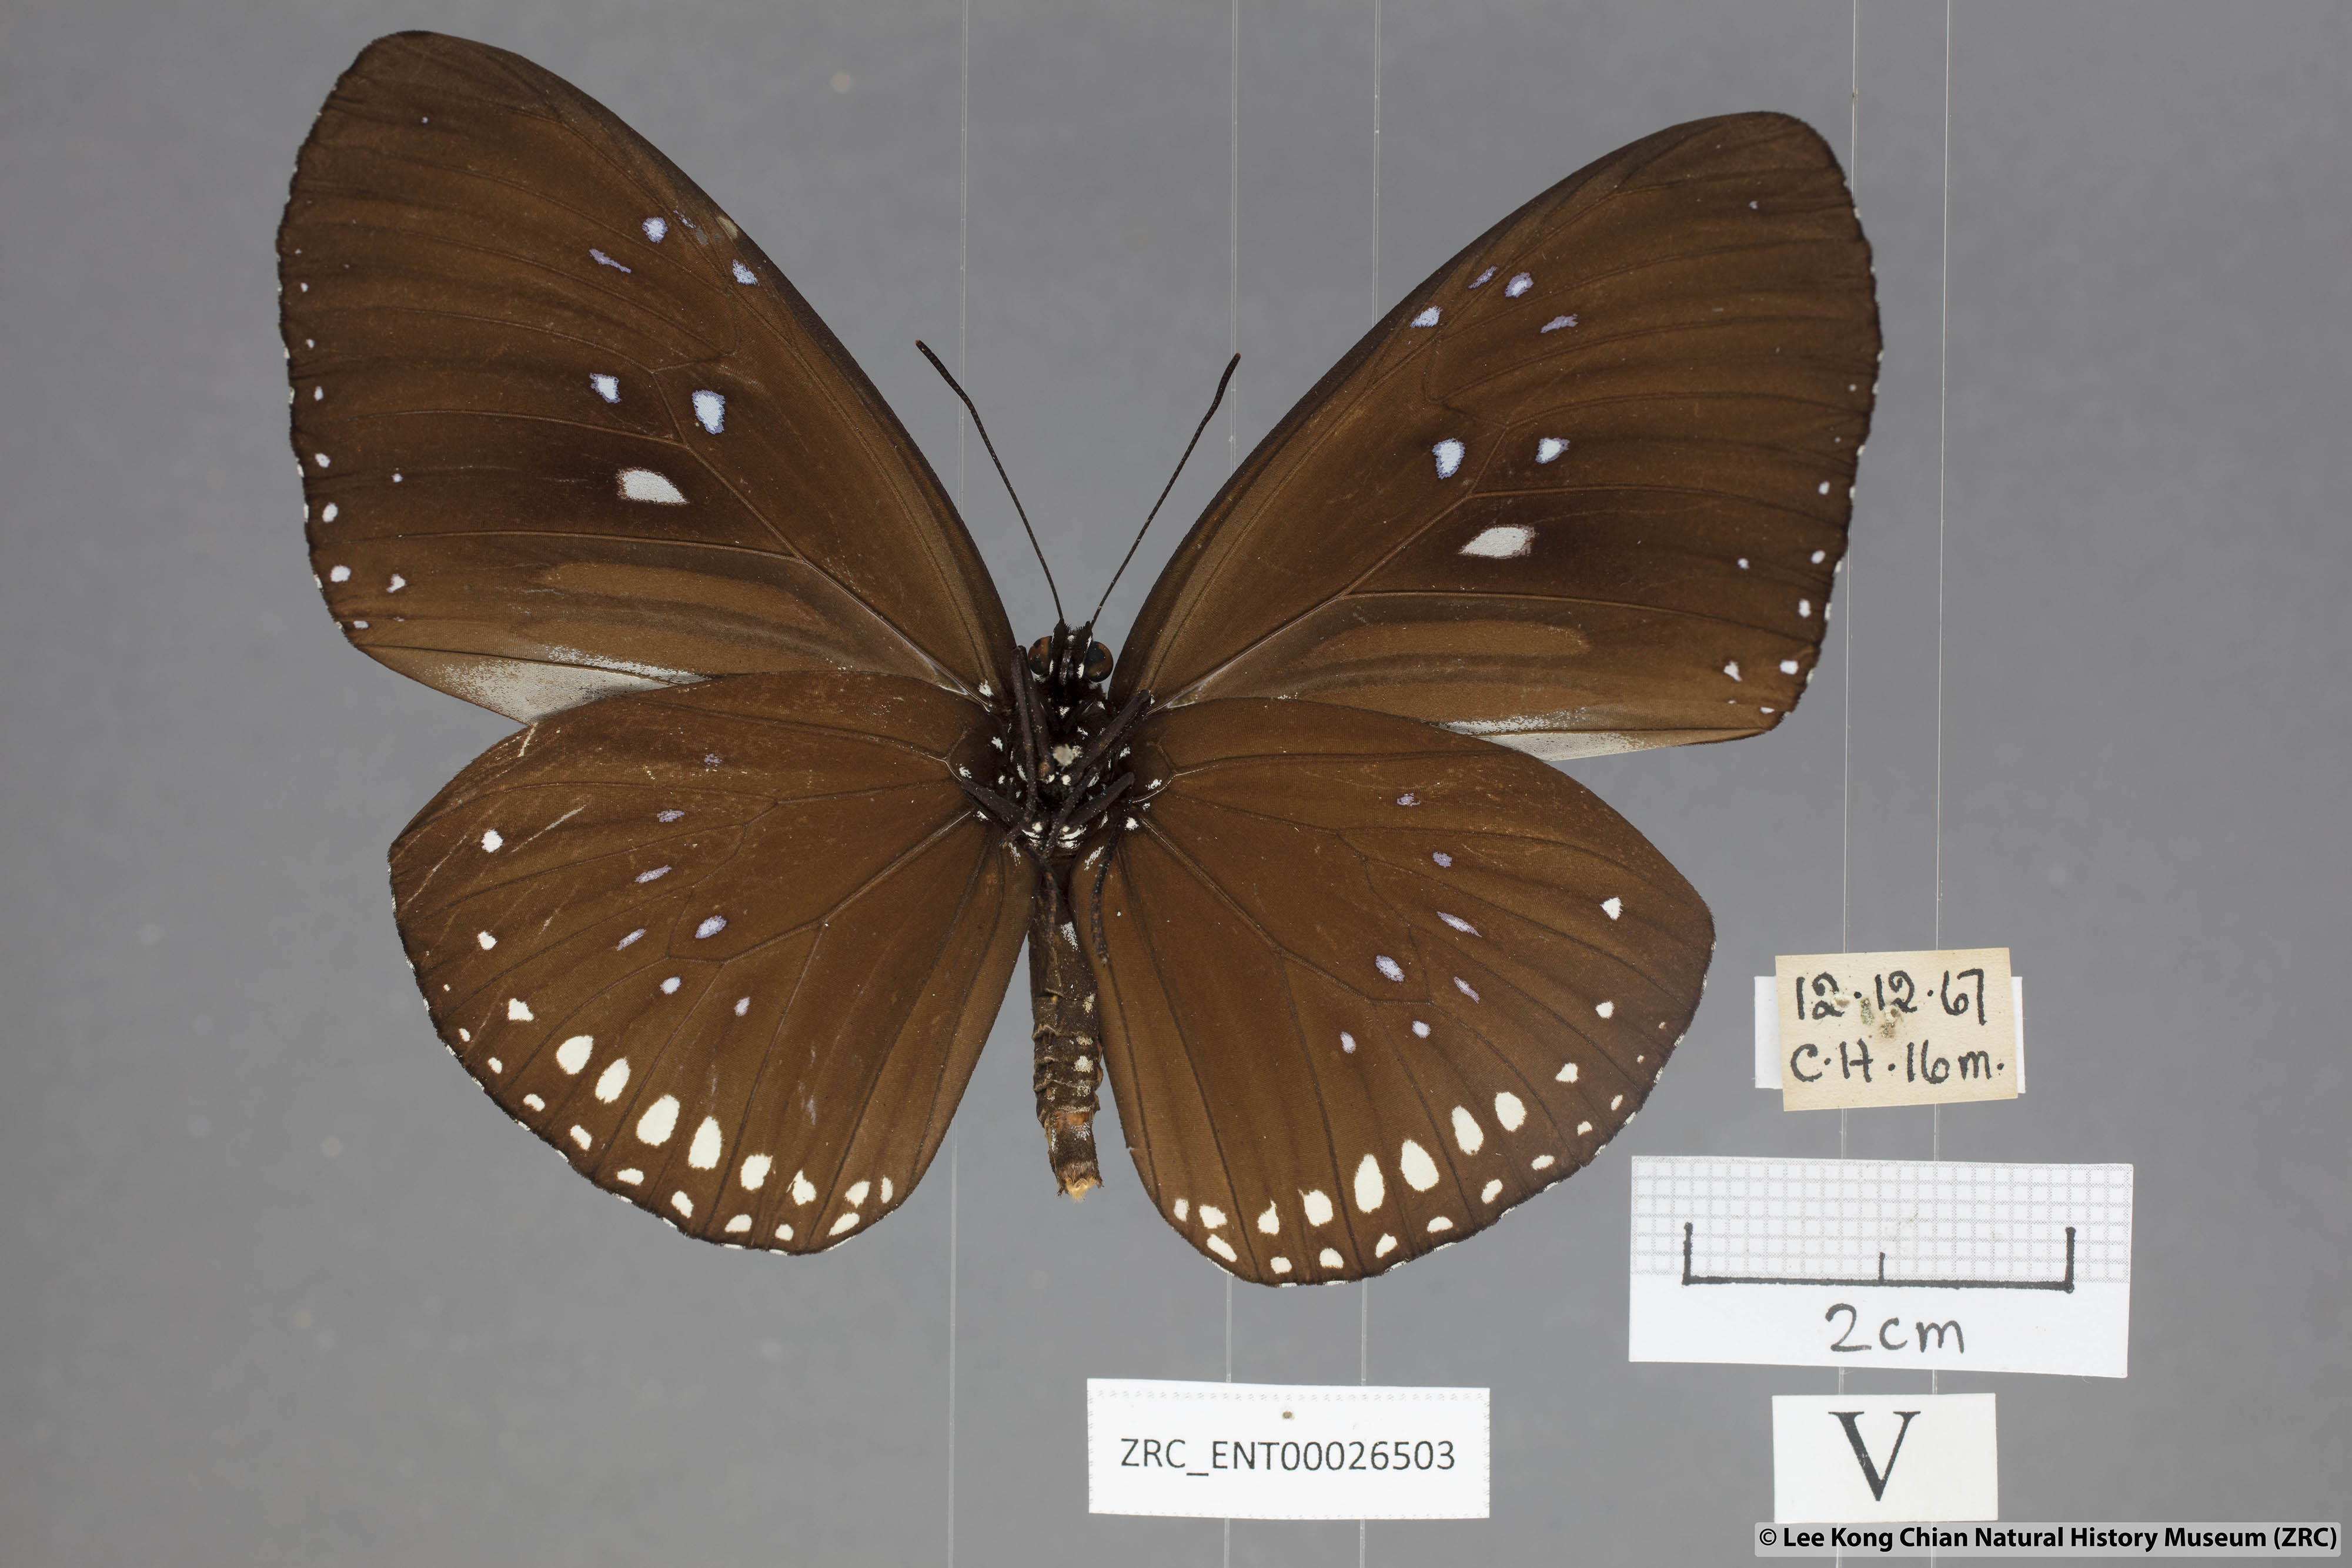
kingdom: Animalia
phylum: Arthropoda
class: Insecta
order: Lepidoptera
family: Nymphalidae
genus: Euploea
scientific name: Euploea sylvester
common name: Double-branded crow butterfly
